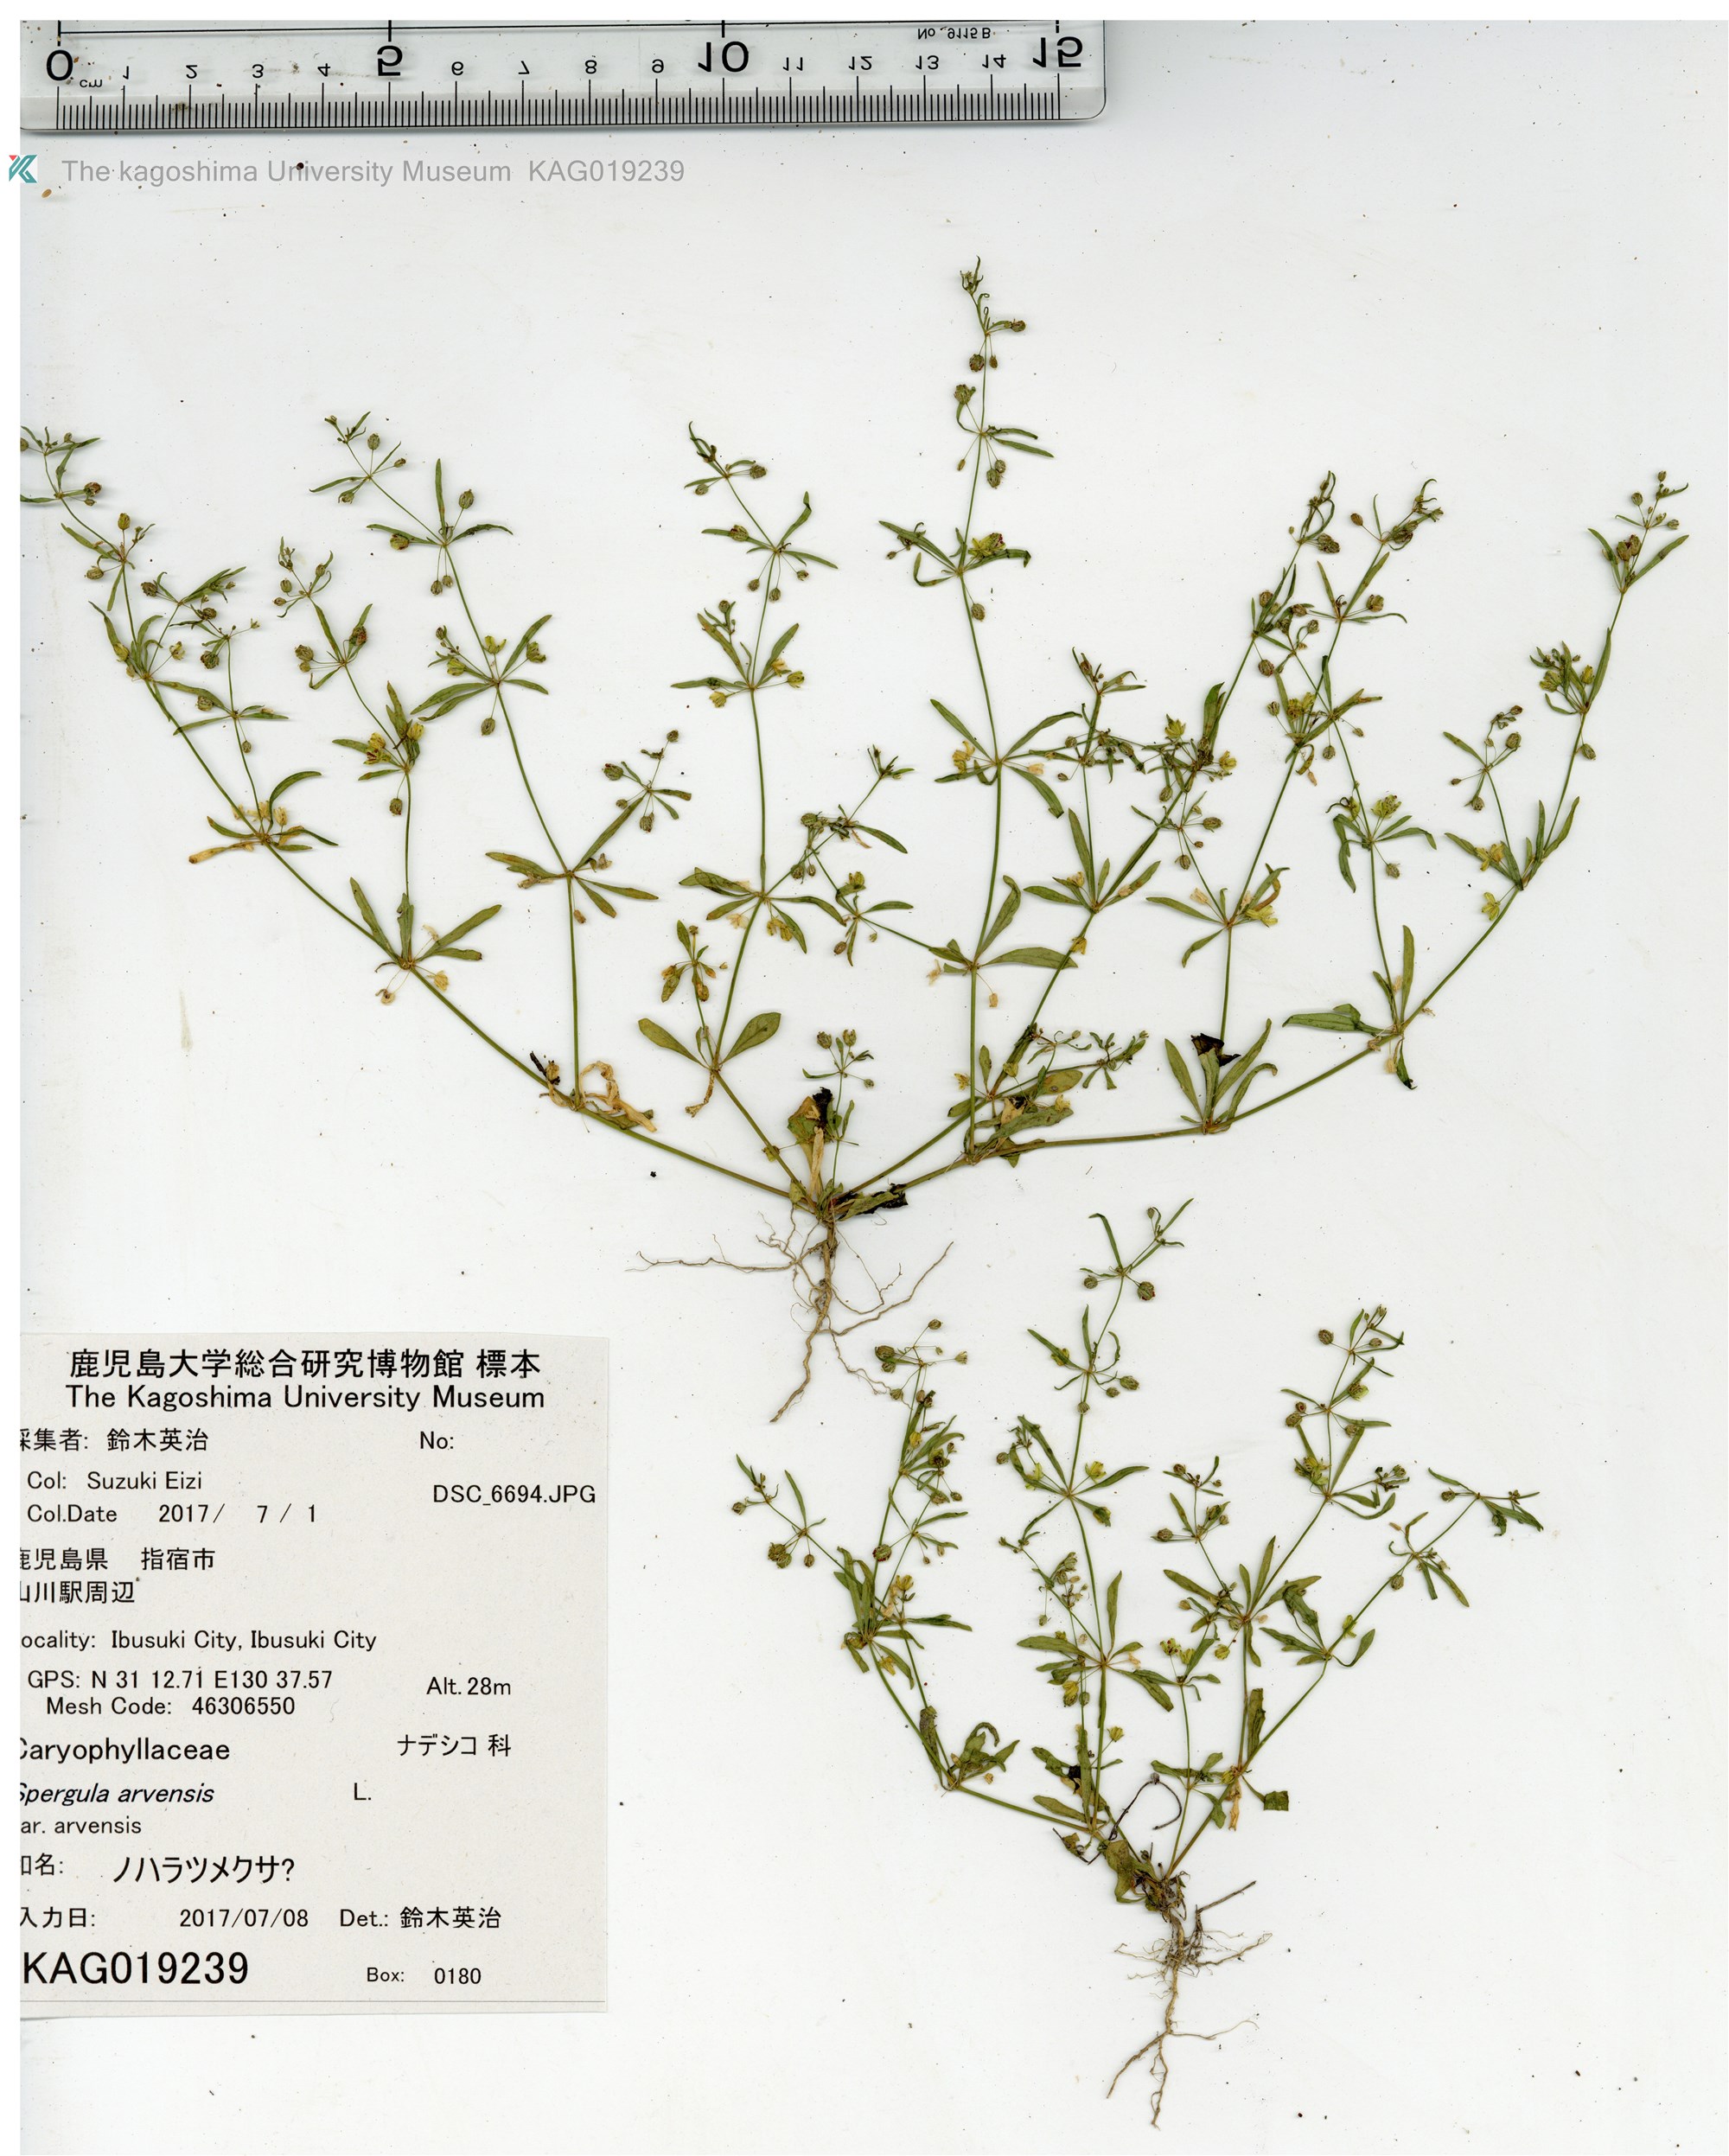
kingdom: Plantae
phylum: Tracheophyta
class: Magnoliopsida
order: Caryophyllales
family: Molluginaceae
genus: Mollugo
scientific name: Mollugo verticillata
